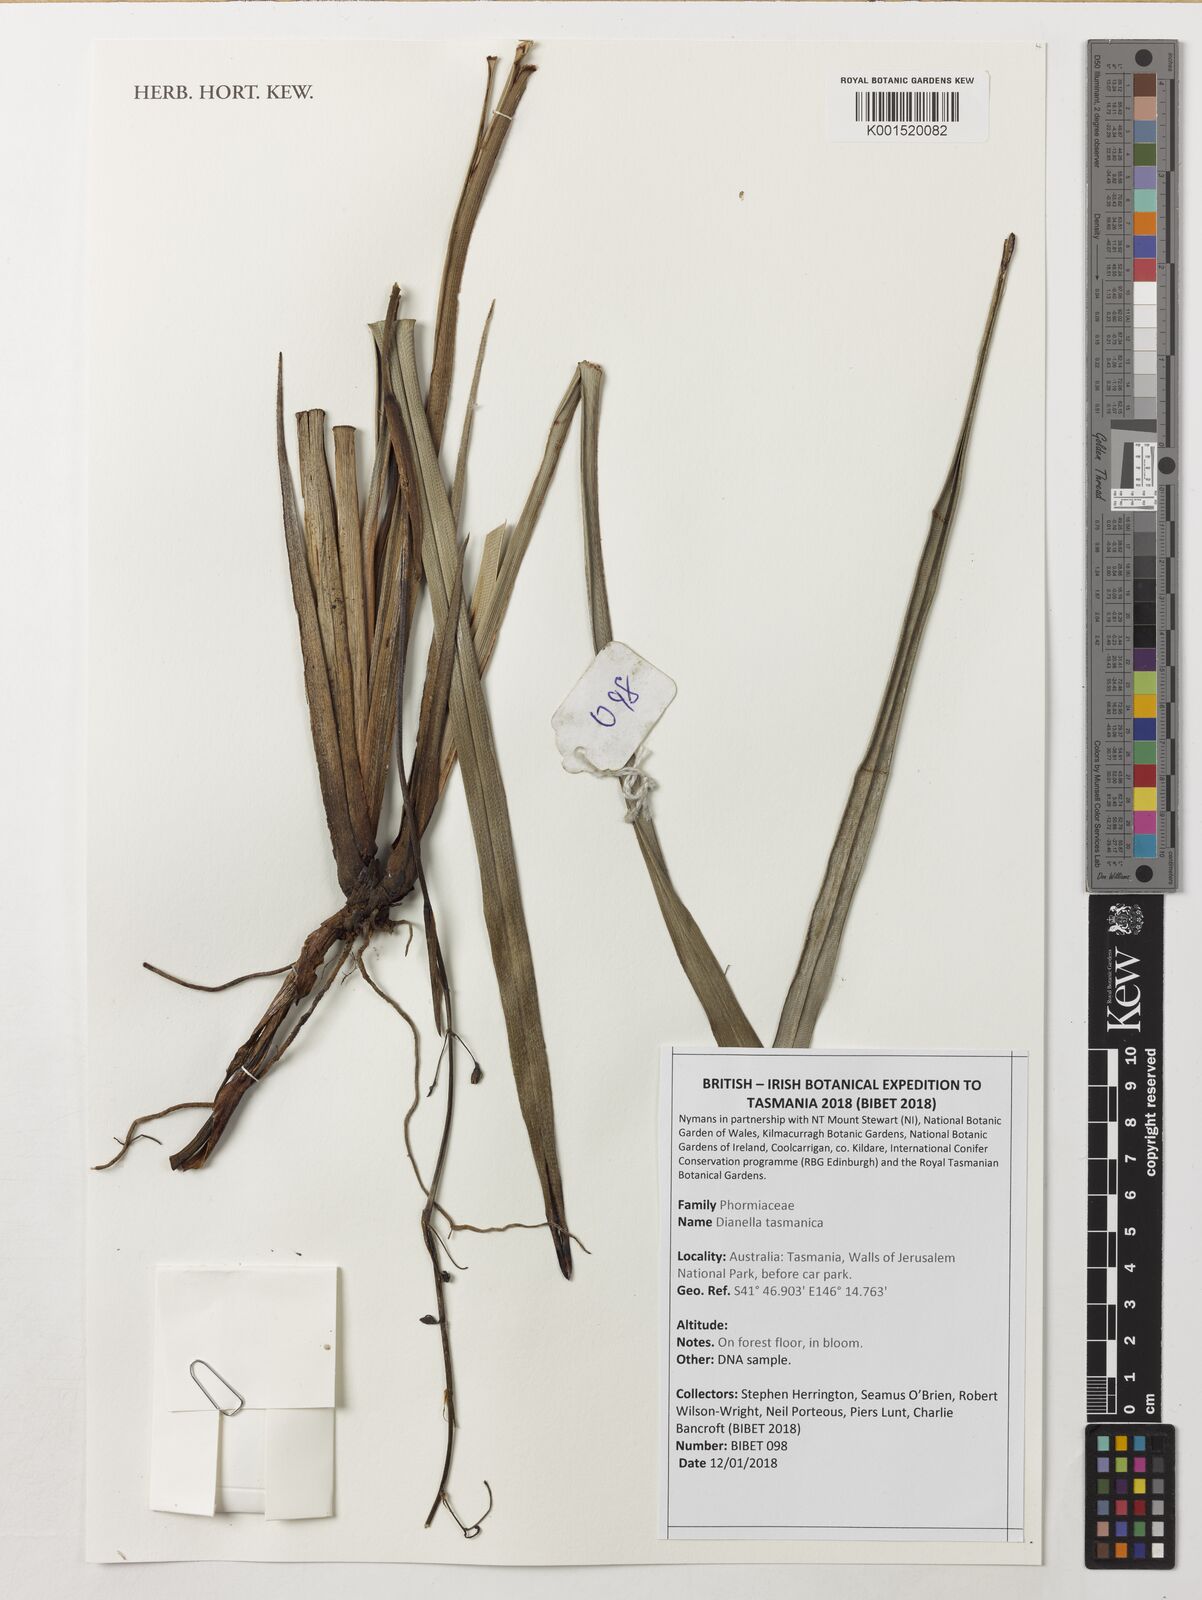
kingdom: Plantae
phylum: Tracheophyta
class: Liliopsida
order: Asparagales
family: Asphodelaceae
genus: Dianella
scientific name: Dianella tasmanica
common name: Tasman flax-lily
